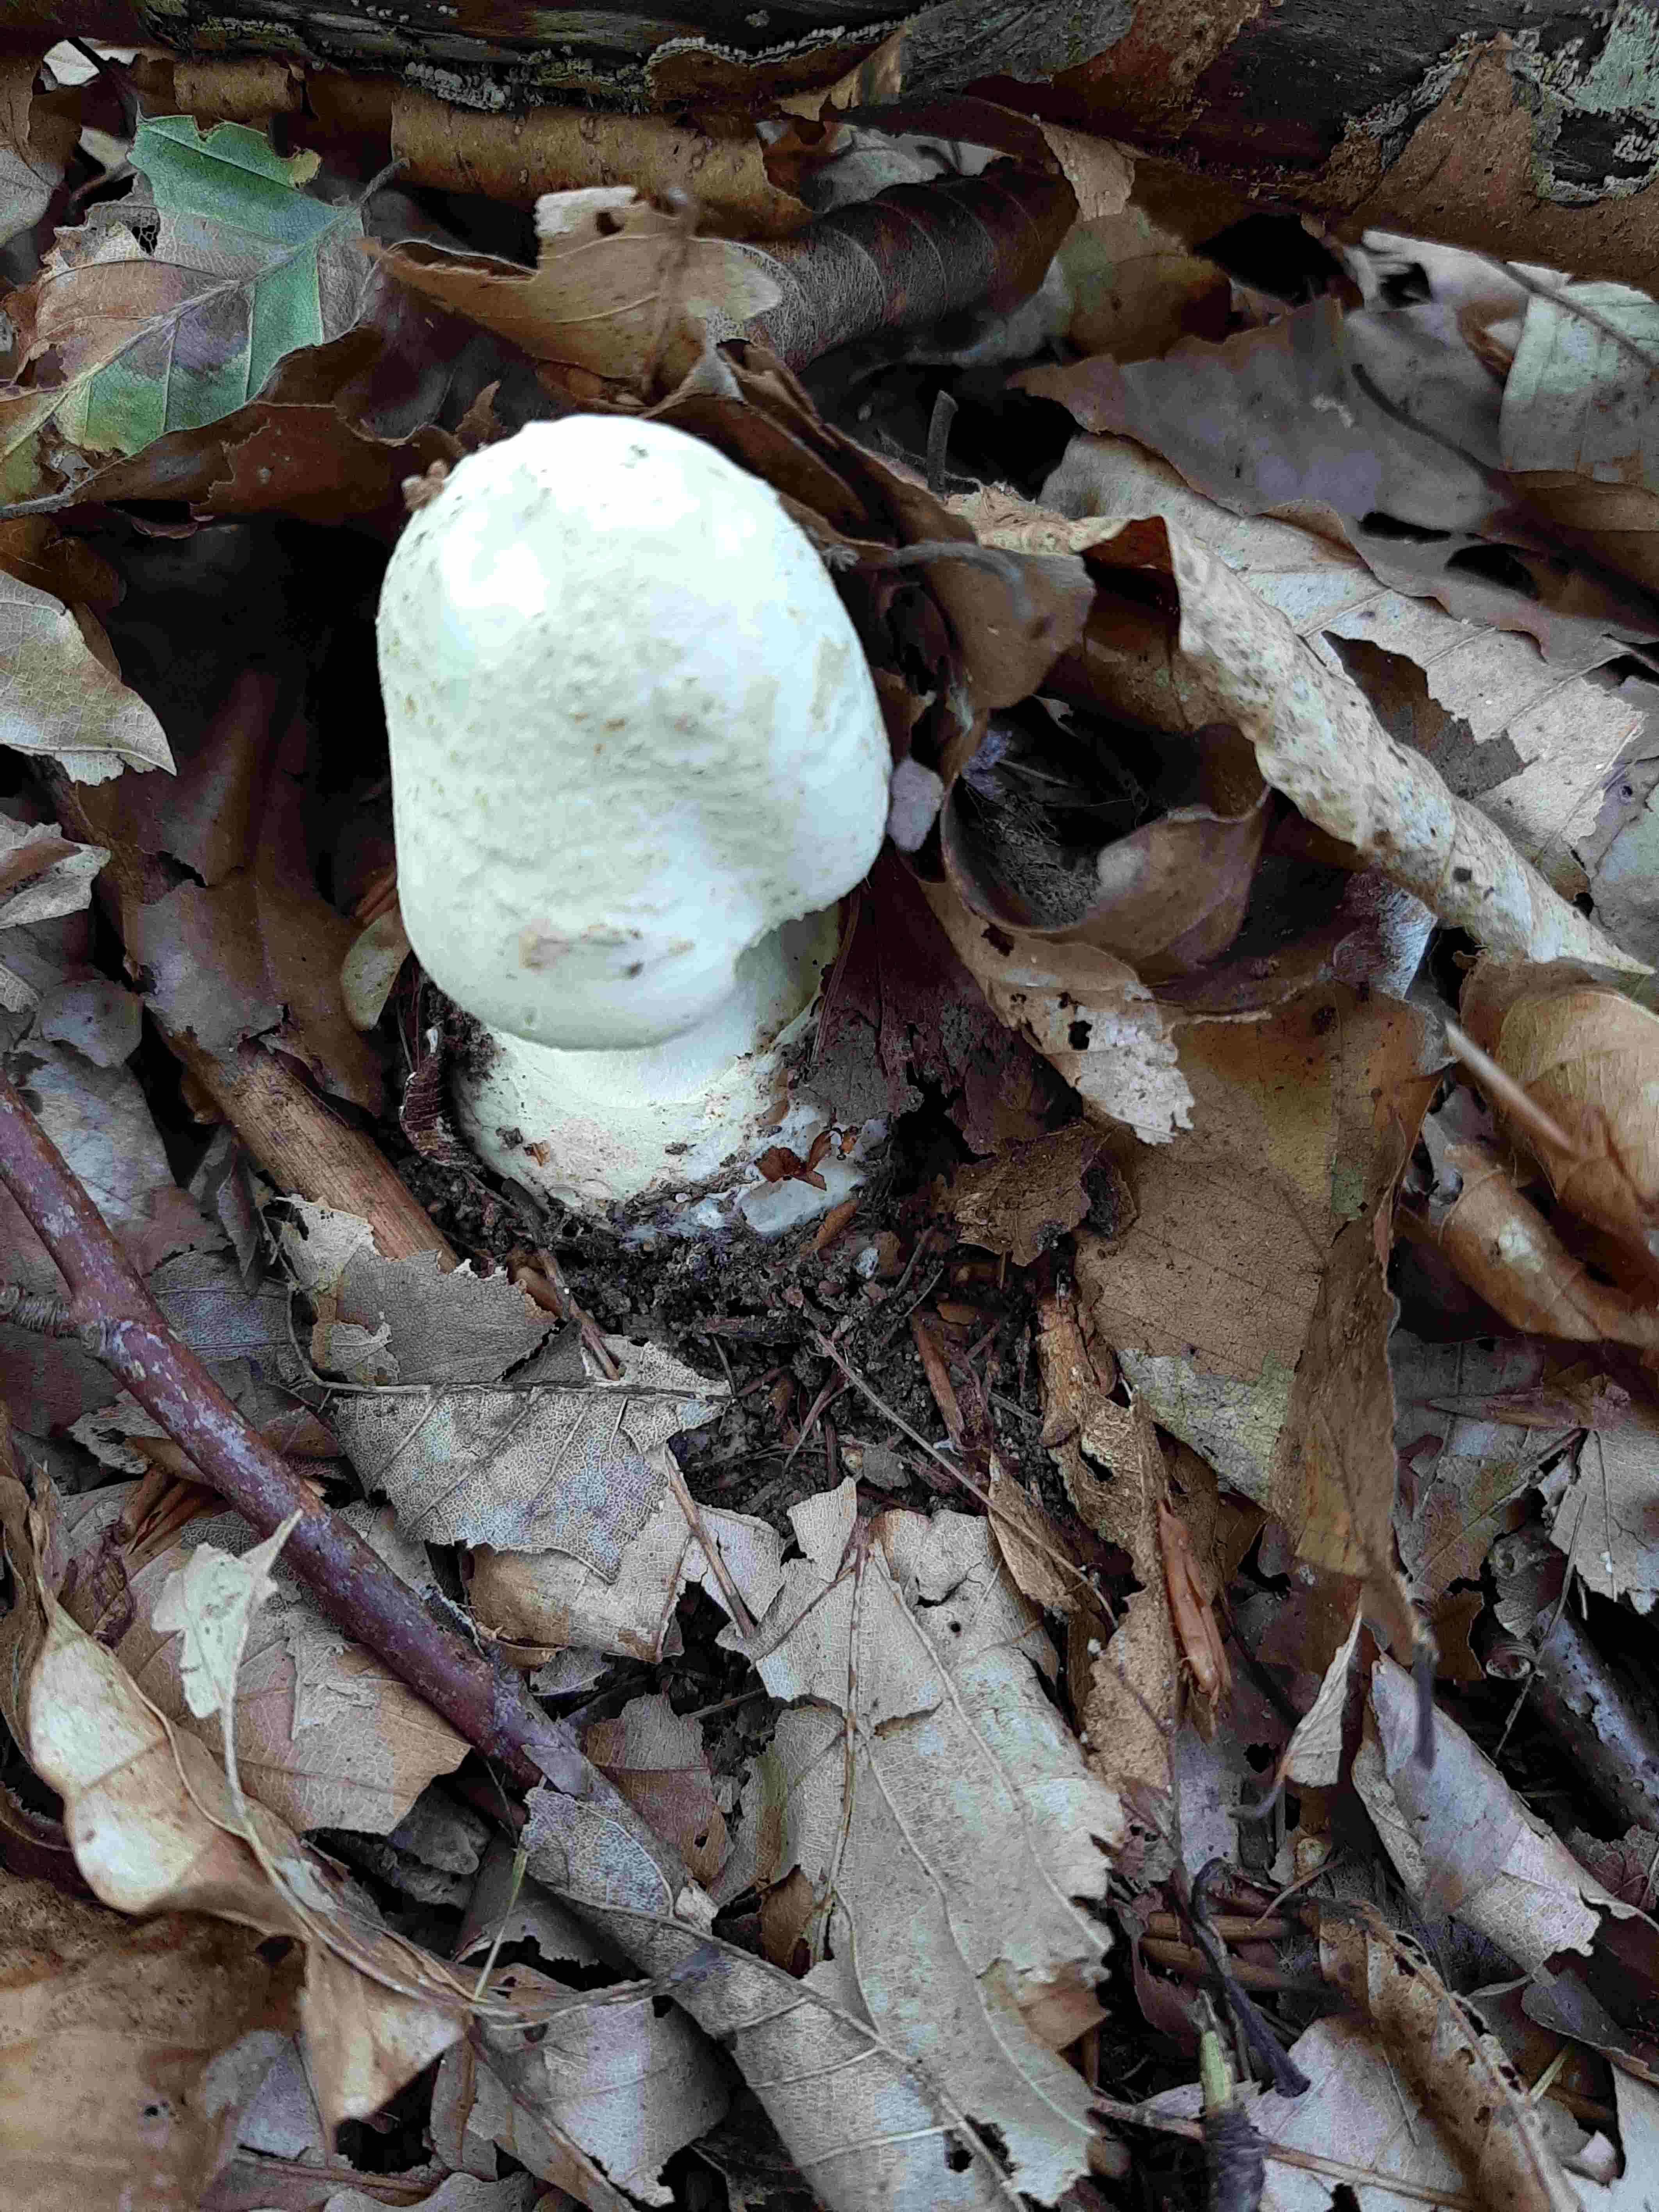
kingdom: Fungi
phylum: Basidiomycota
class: Agaricomycetes
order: Agaricales
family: Amanitaceae
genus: Amanita
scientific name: Amanita citrina
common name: kugleknoldet fluesvamp
